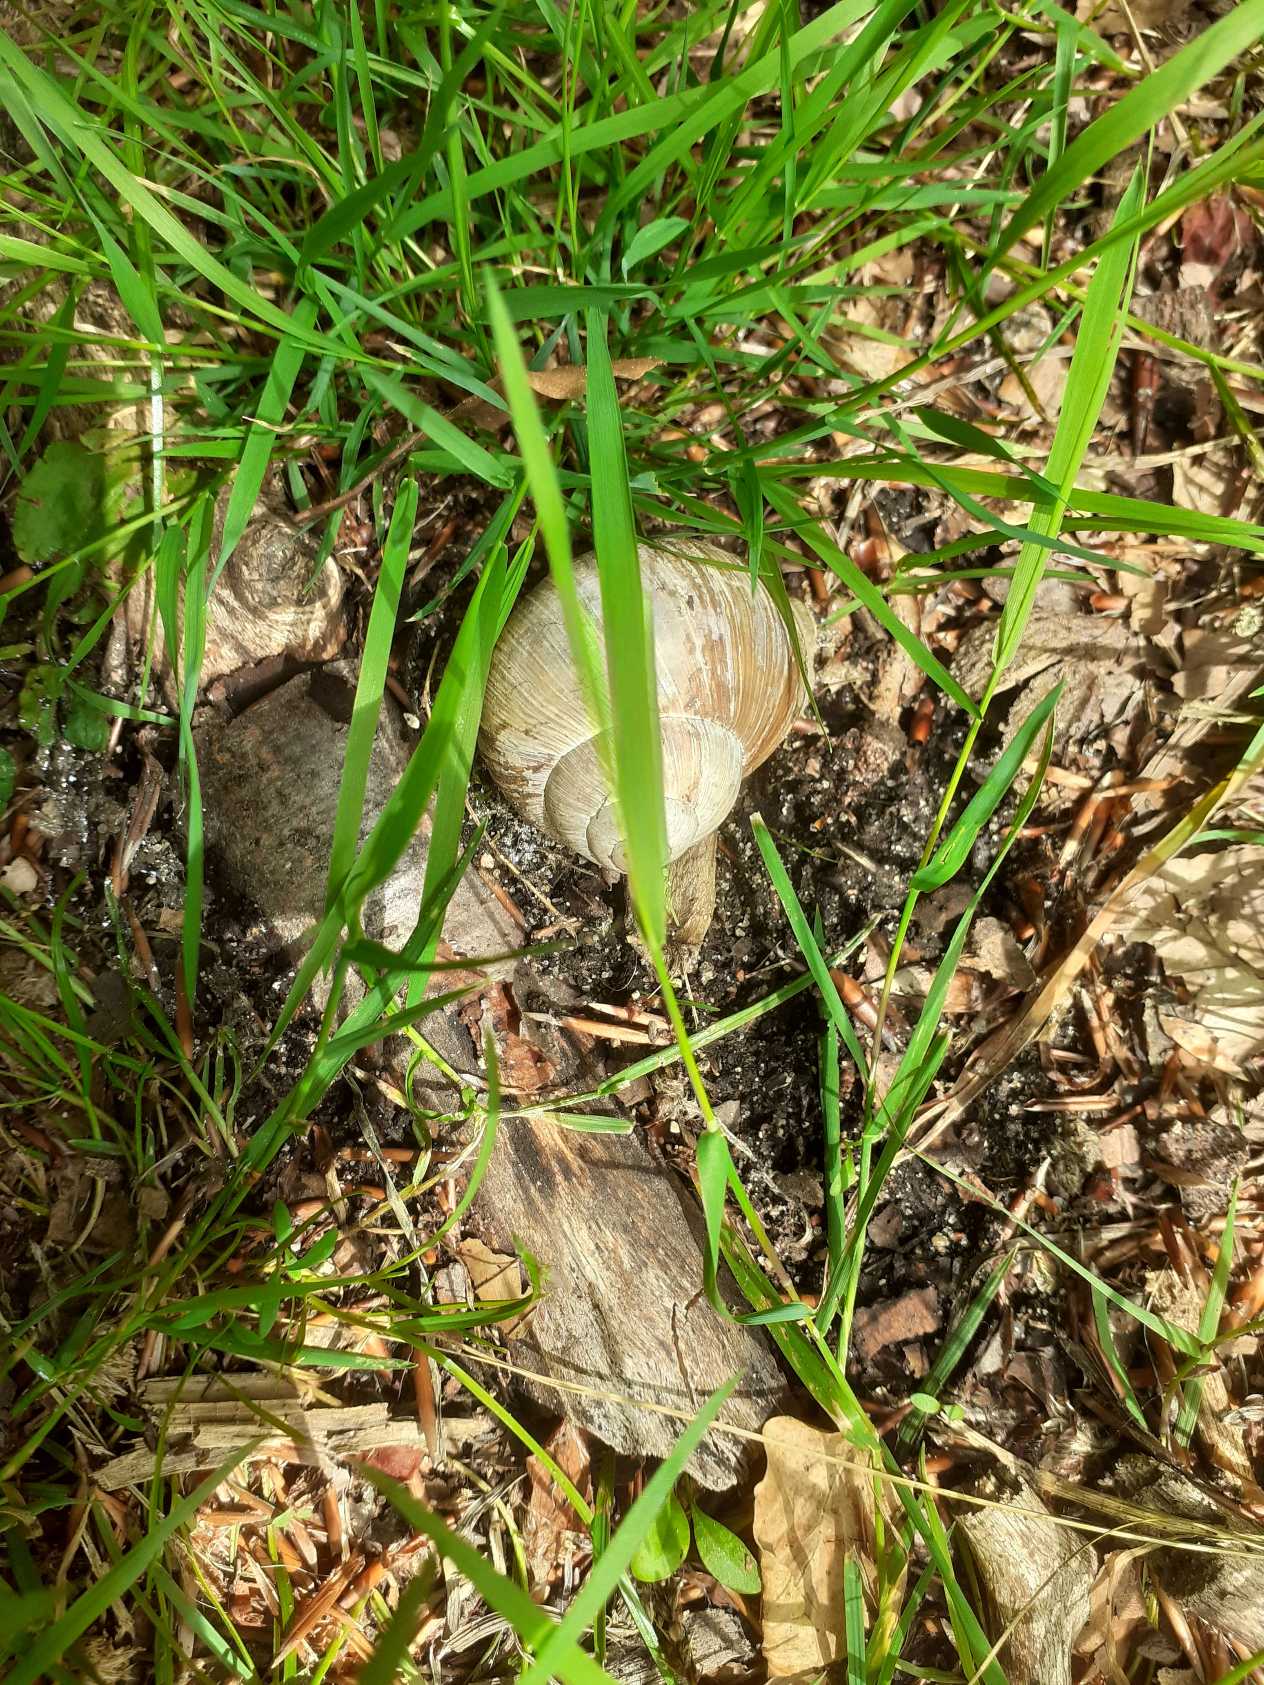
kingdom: Animalia
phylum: Mollusca
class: Gastropoda
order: Stylommatophora
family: Helicidae
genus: Helix
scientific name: Helix pomatia
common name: Vinbjergsnegl
